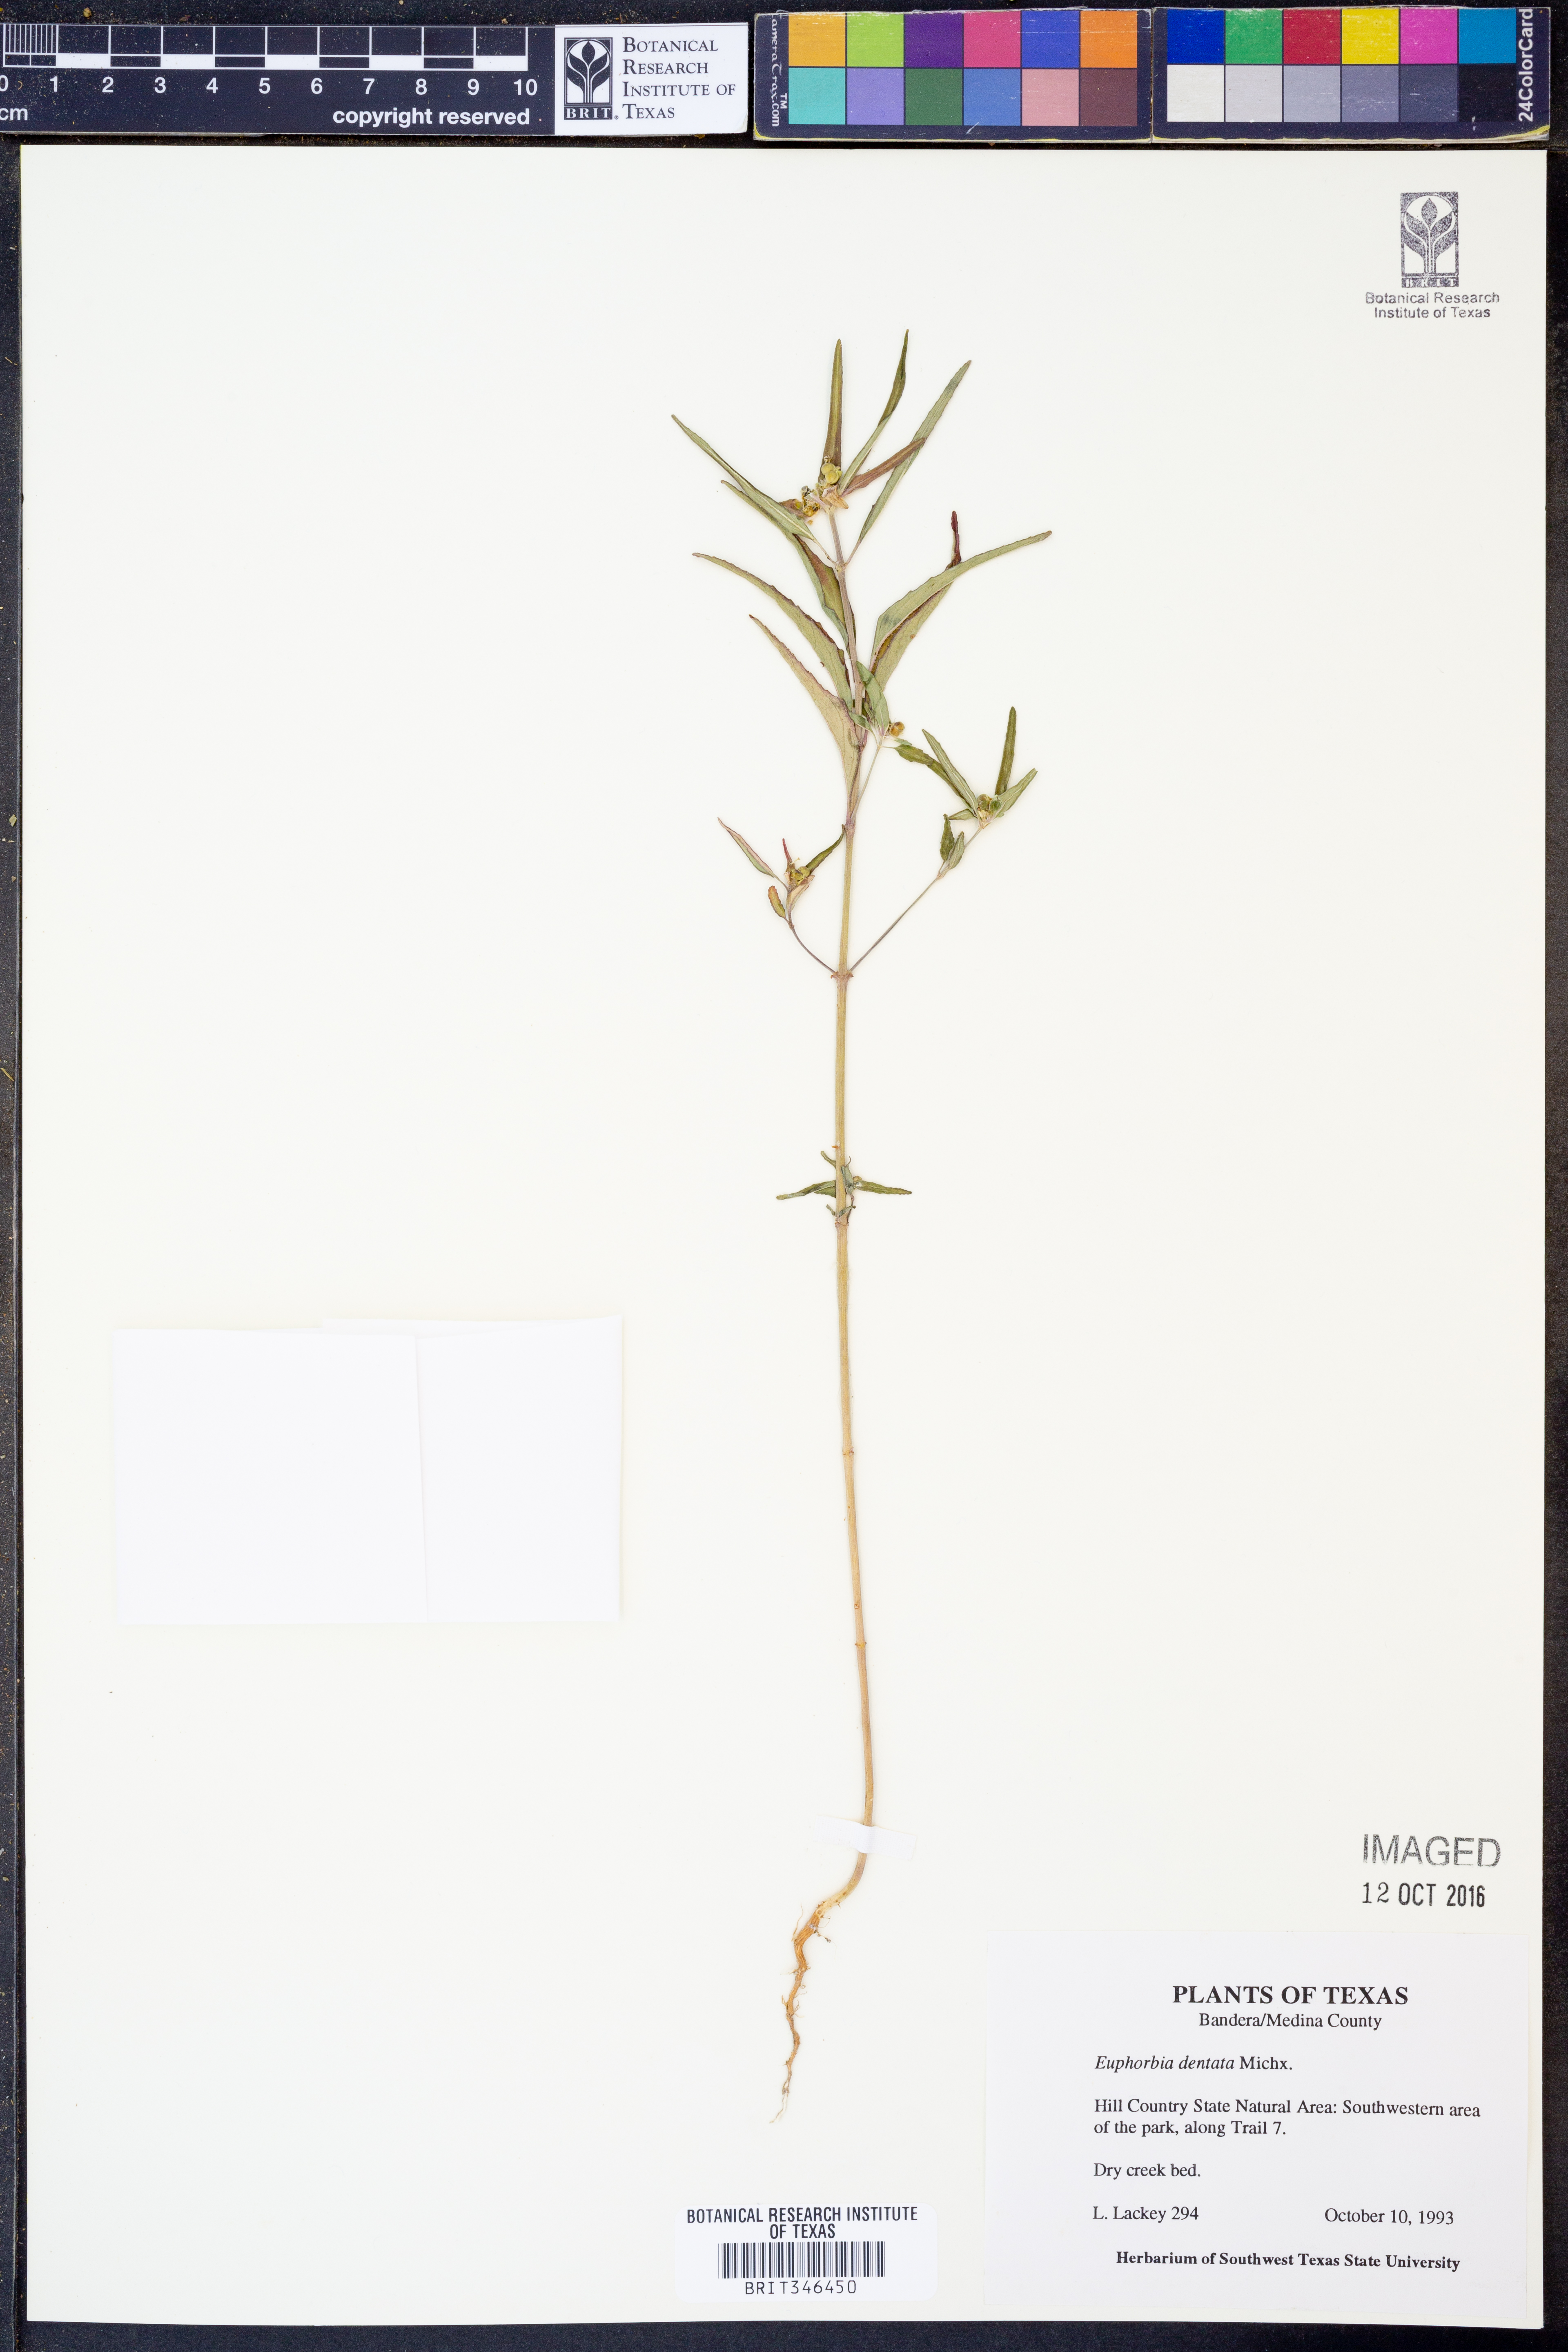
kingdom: Plantae
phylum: Tracheophyta
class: Magnoliopsida
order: Malpighiales
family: Euphorbiaceae
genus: Euphorbia
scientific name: Euphorbia dentata
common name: Dentate spurge
